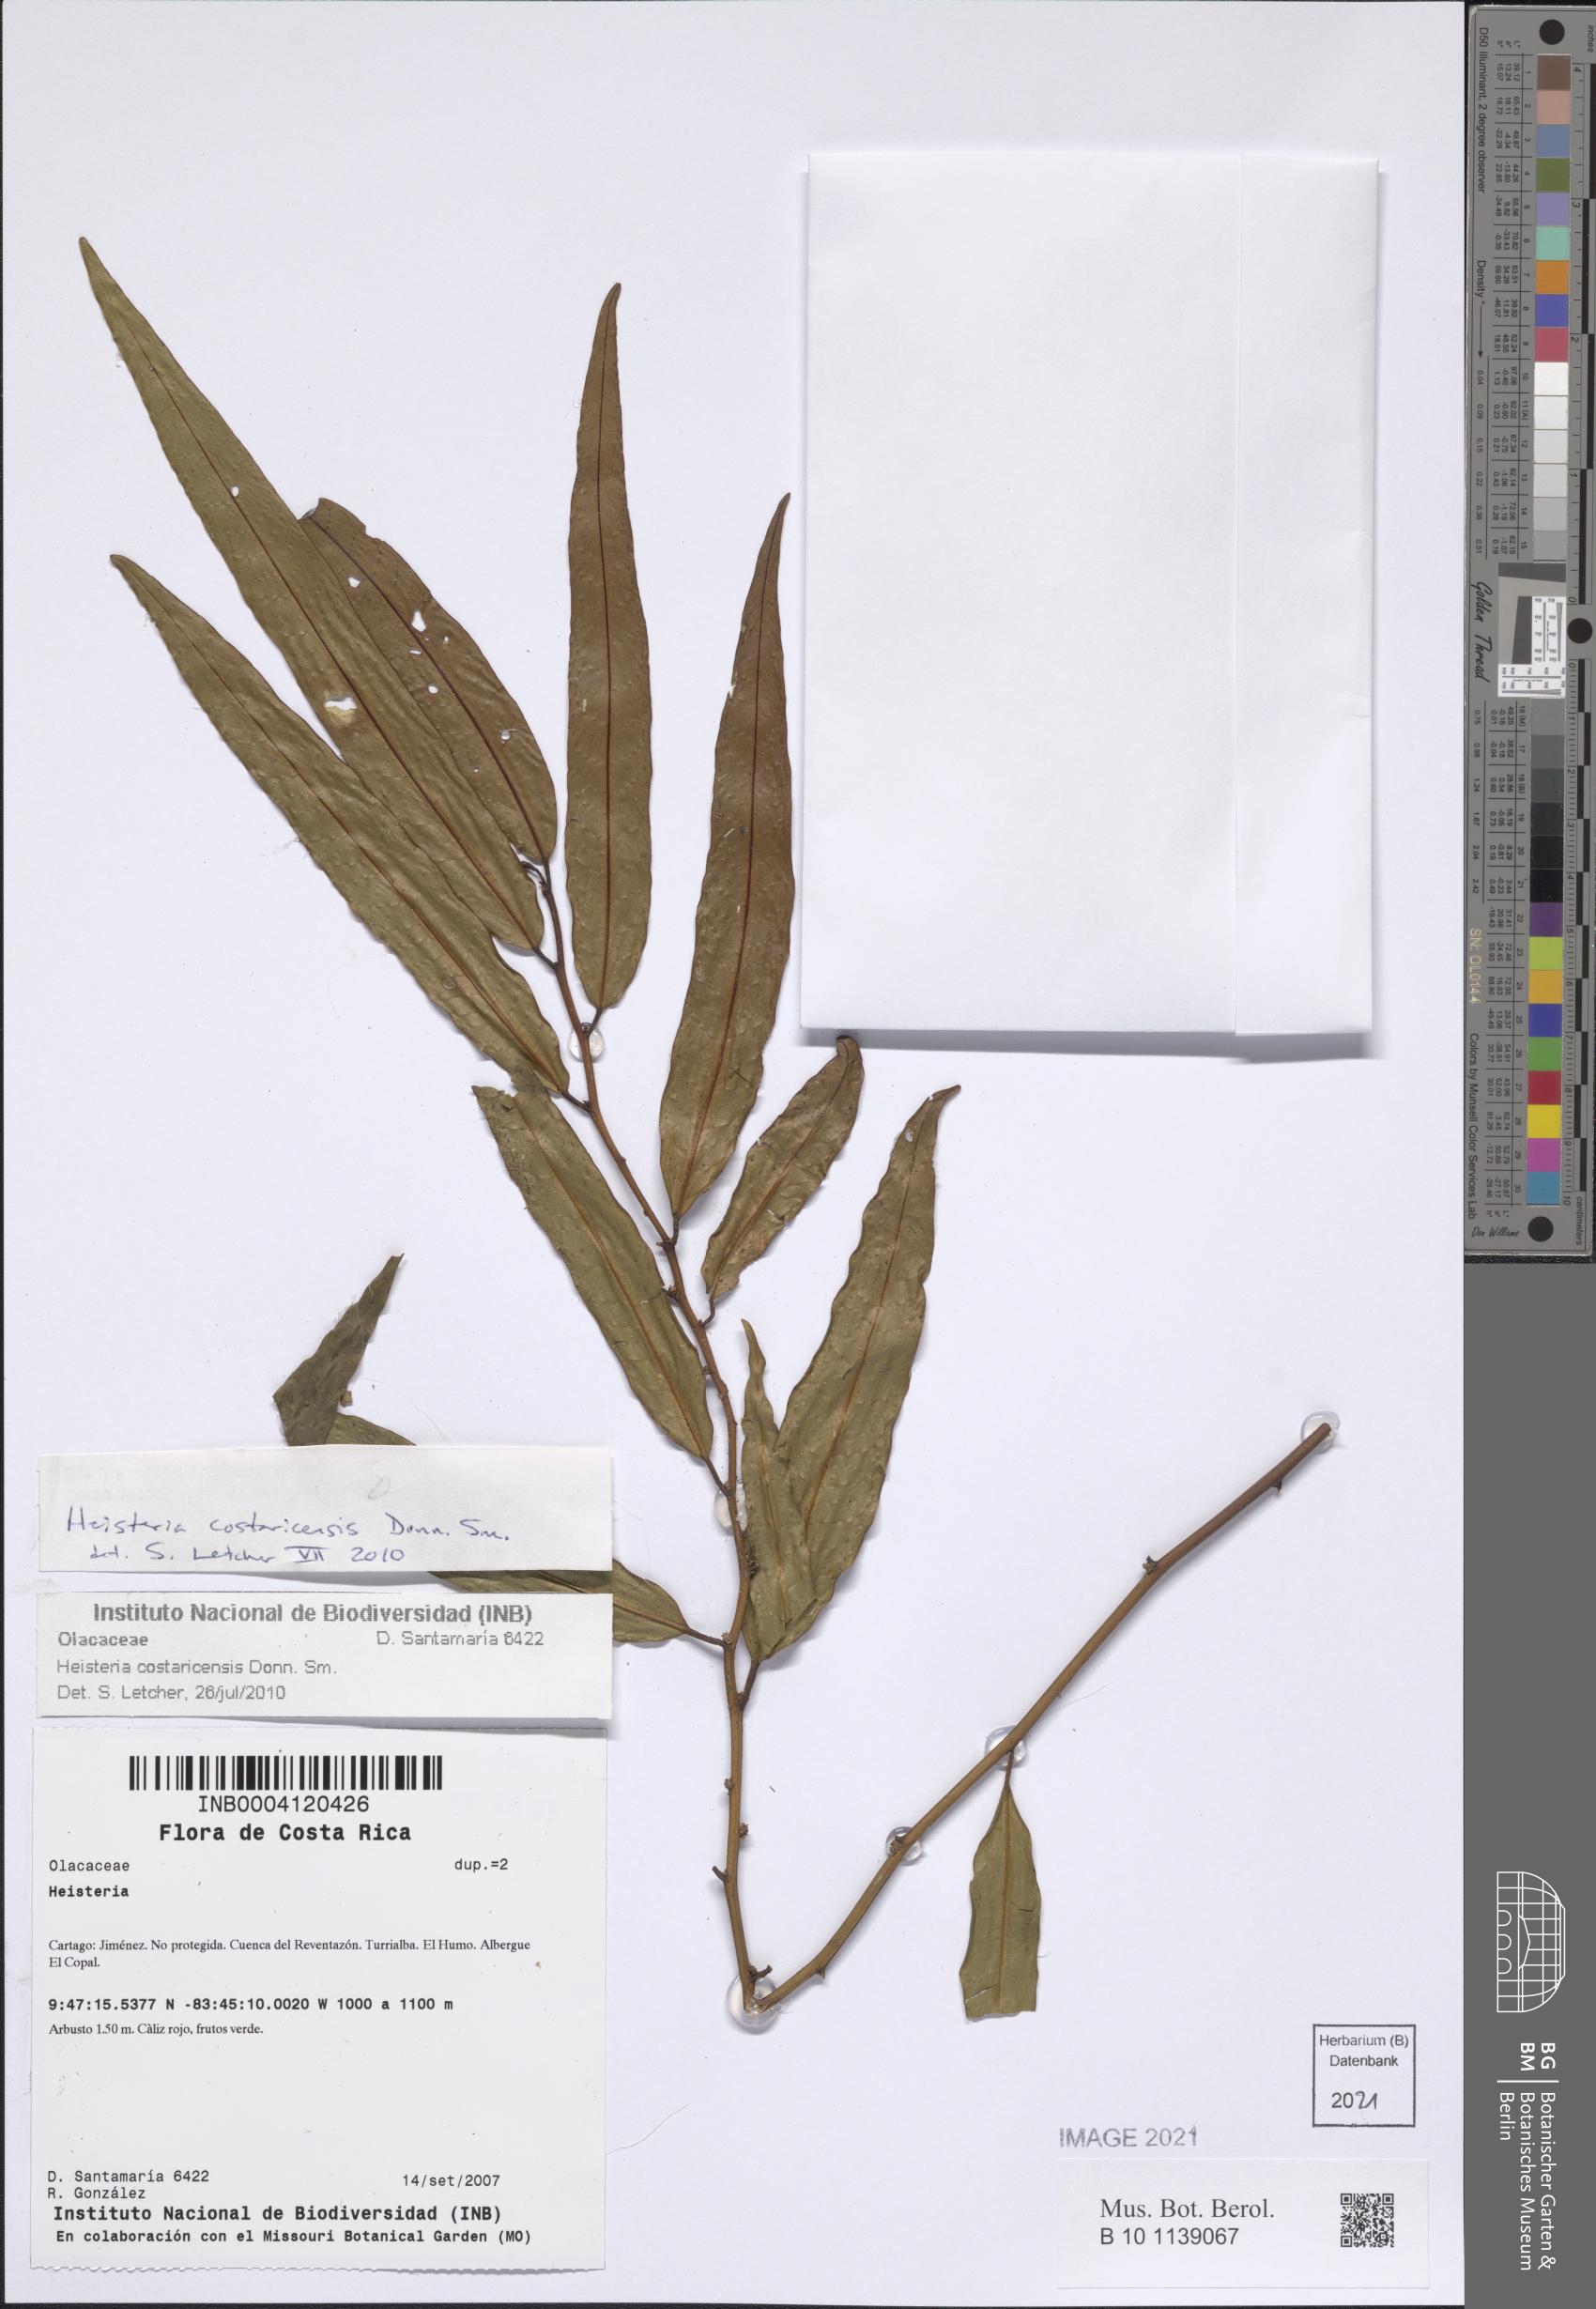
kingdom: Plantae
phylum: Tracheophyta
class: Magnoliopsida
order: Santalales
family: Erythropalaceae
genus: Heisteria
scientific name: Heisteria macrophylla
